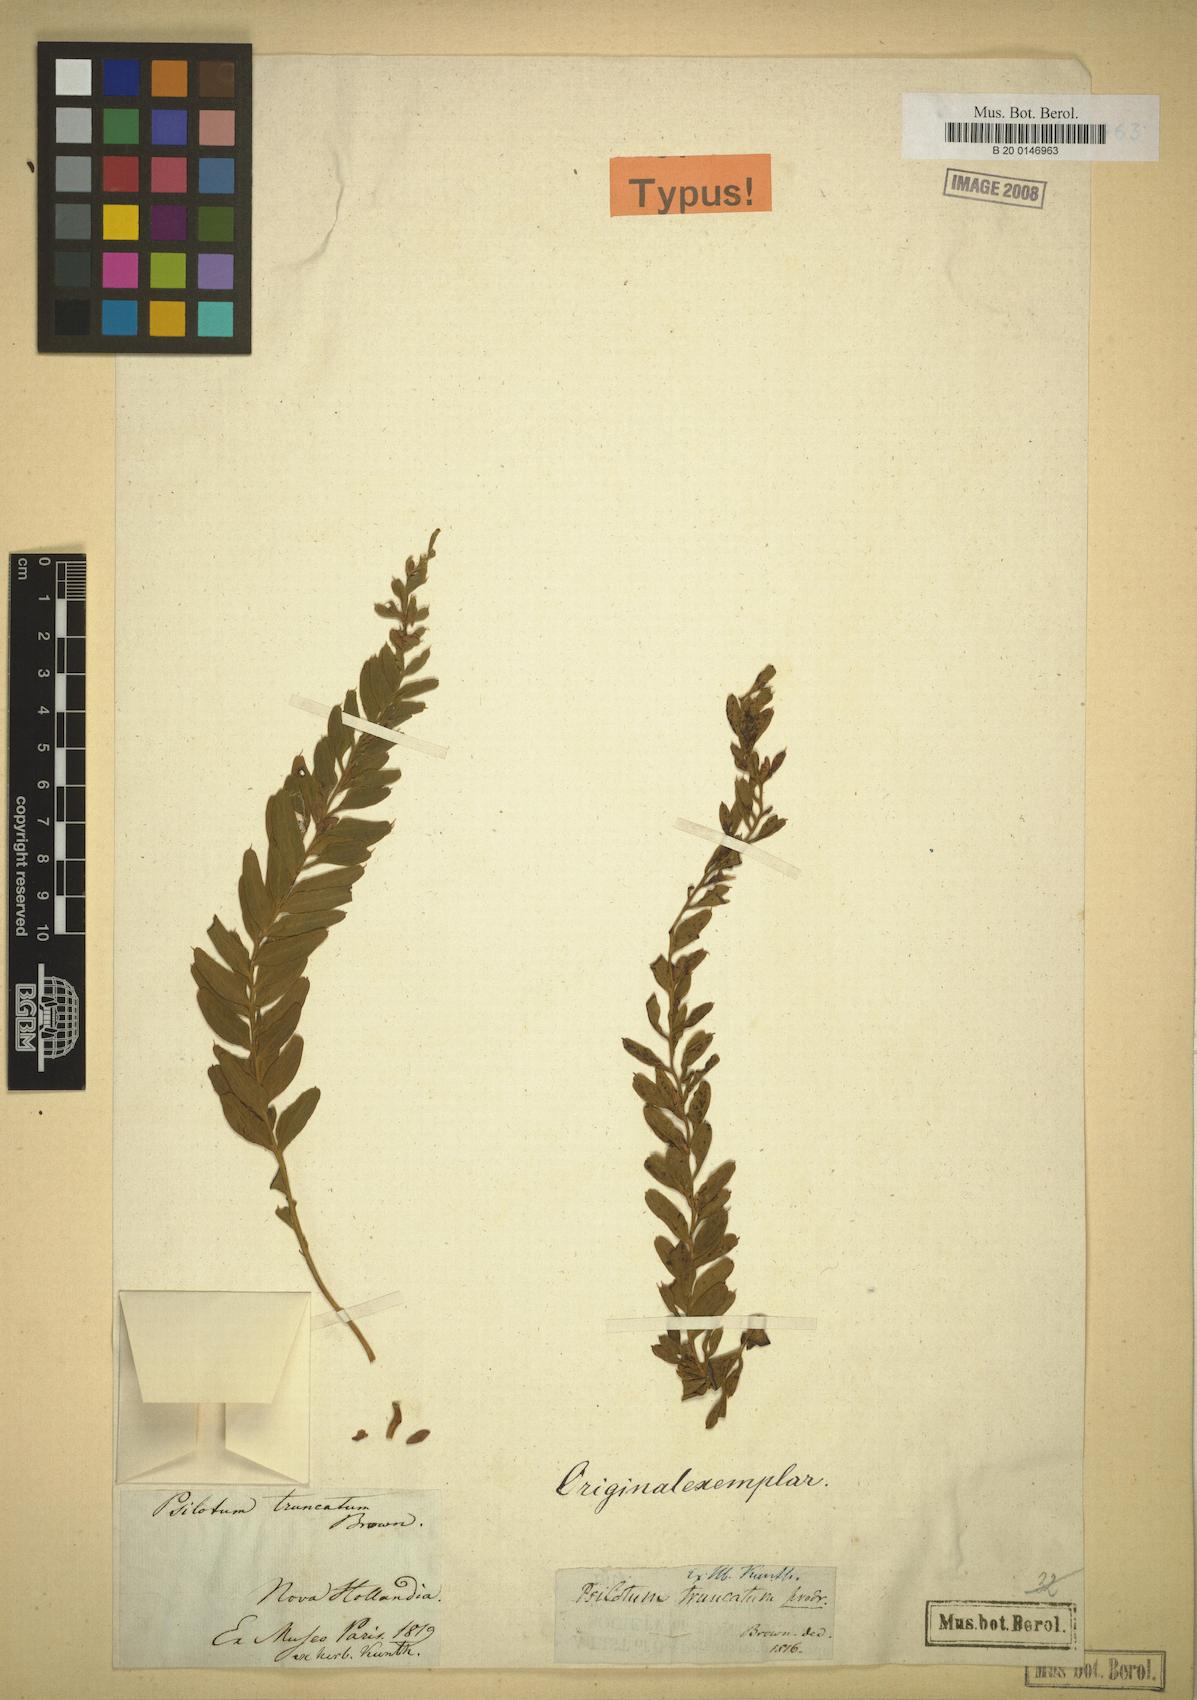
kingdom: Plantae
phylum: Tracheophyta
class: Polypodiopsida
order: Psilotales
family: Psilotaceae
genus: Tmesipteris
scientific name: Tmesipteris truncata
